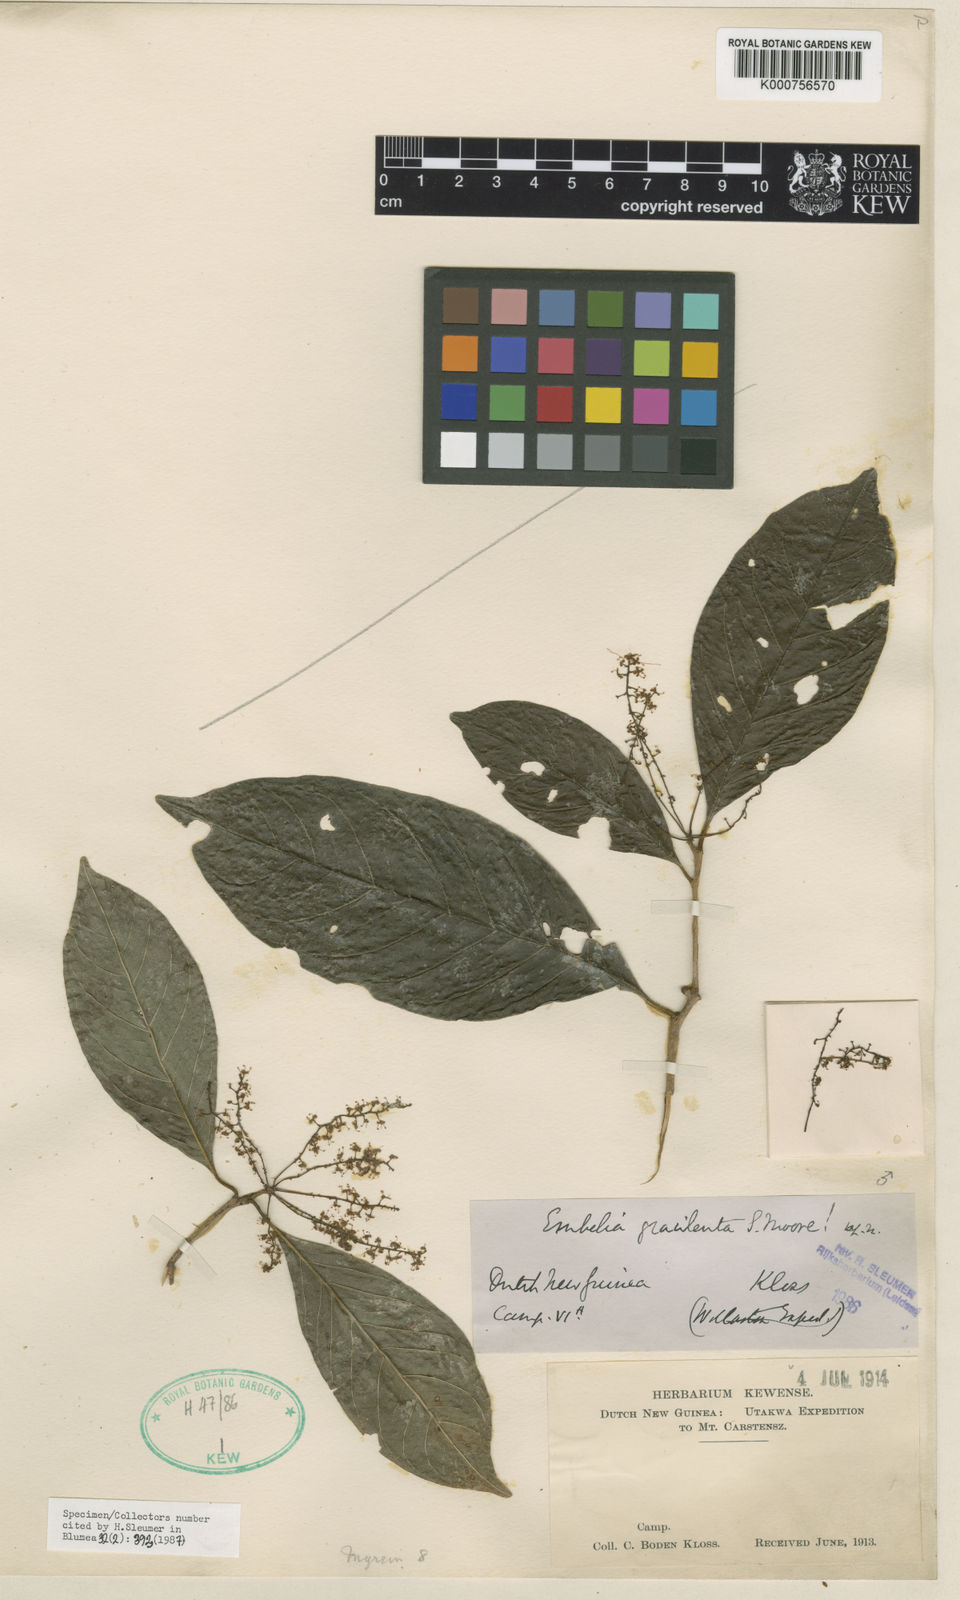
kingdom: Plantae
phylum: Tracheophyta
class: Magnoliopsida
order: Ericales
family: Primulaceae
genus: Embelia
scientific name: Embelia gracilenta
